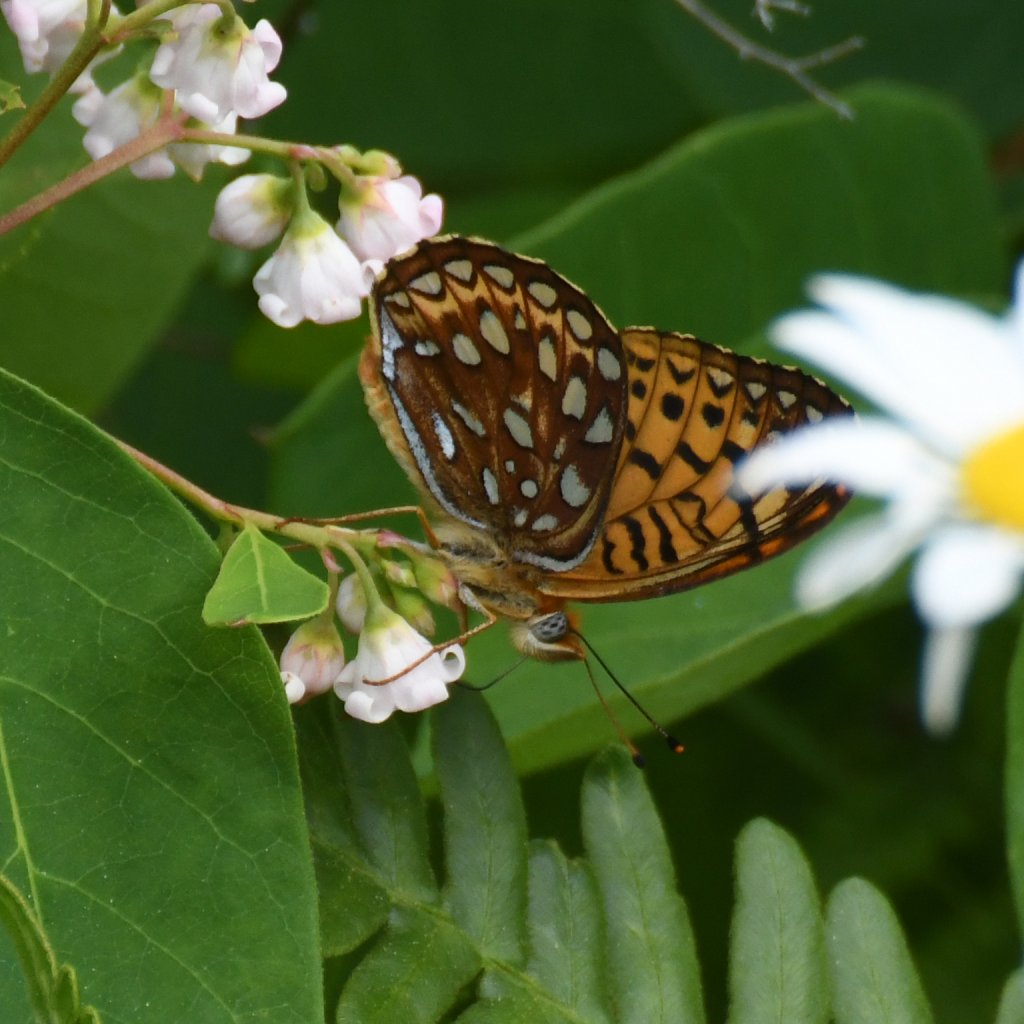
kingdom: Animalia
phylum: Arthropoda
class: Insecta
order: Lepidoptera
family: Nymphalidae
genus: Speyeria
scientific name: Speyeria atlantis
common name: Atlantis Fritillary
